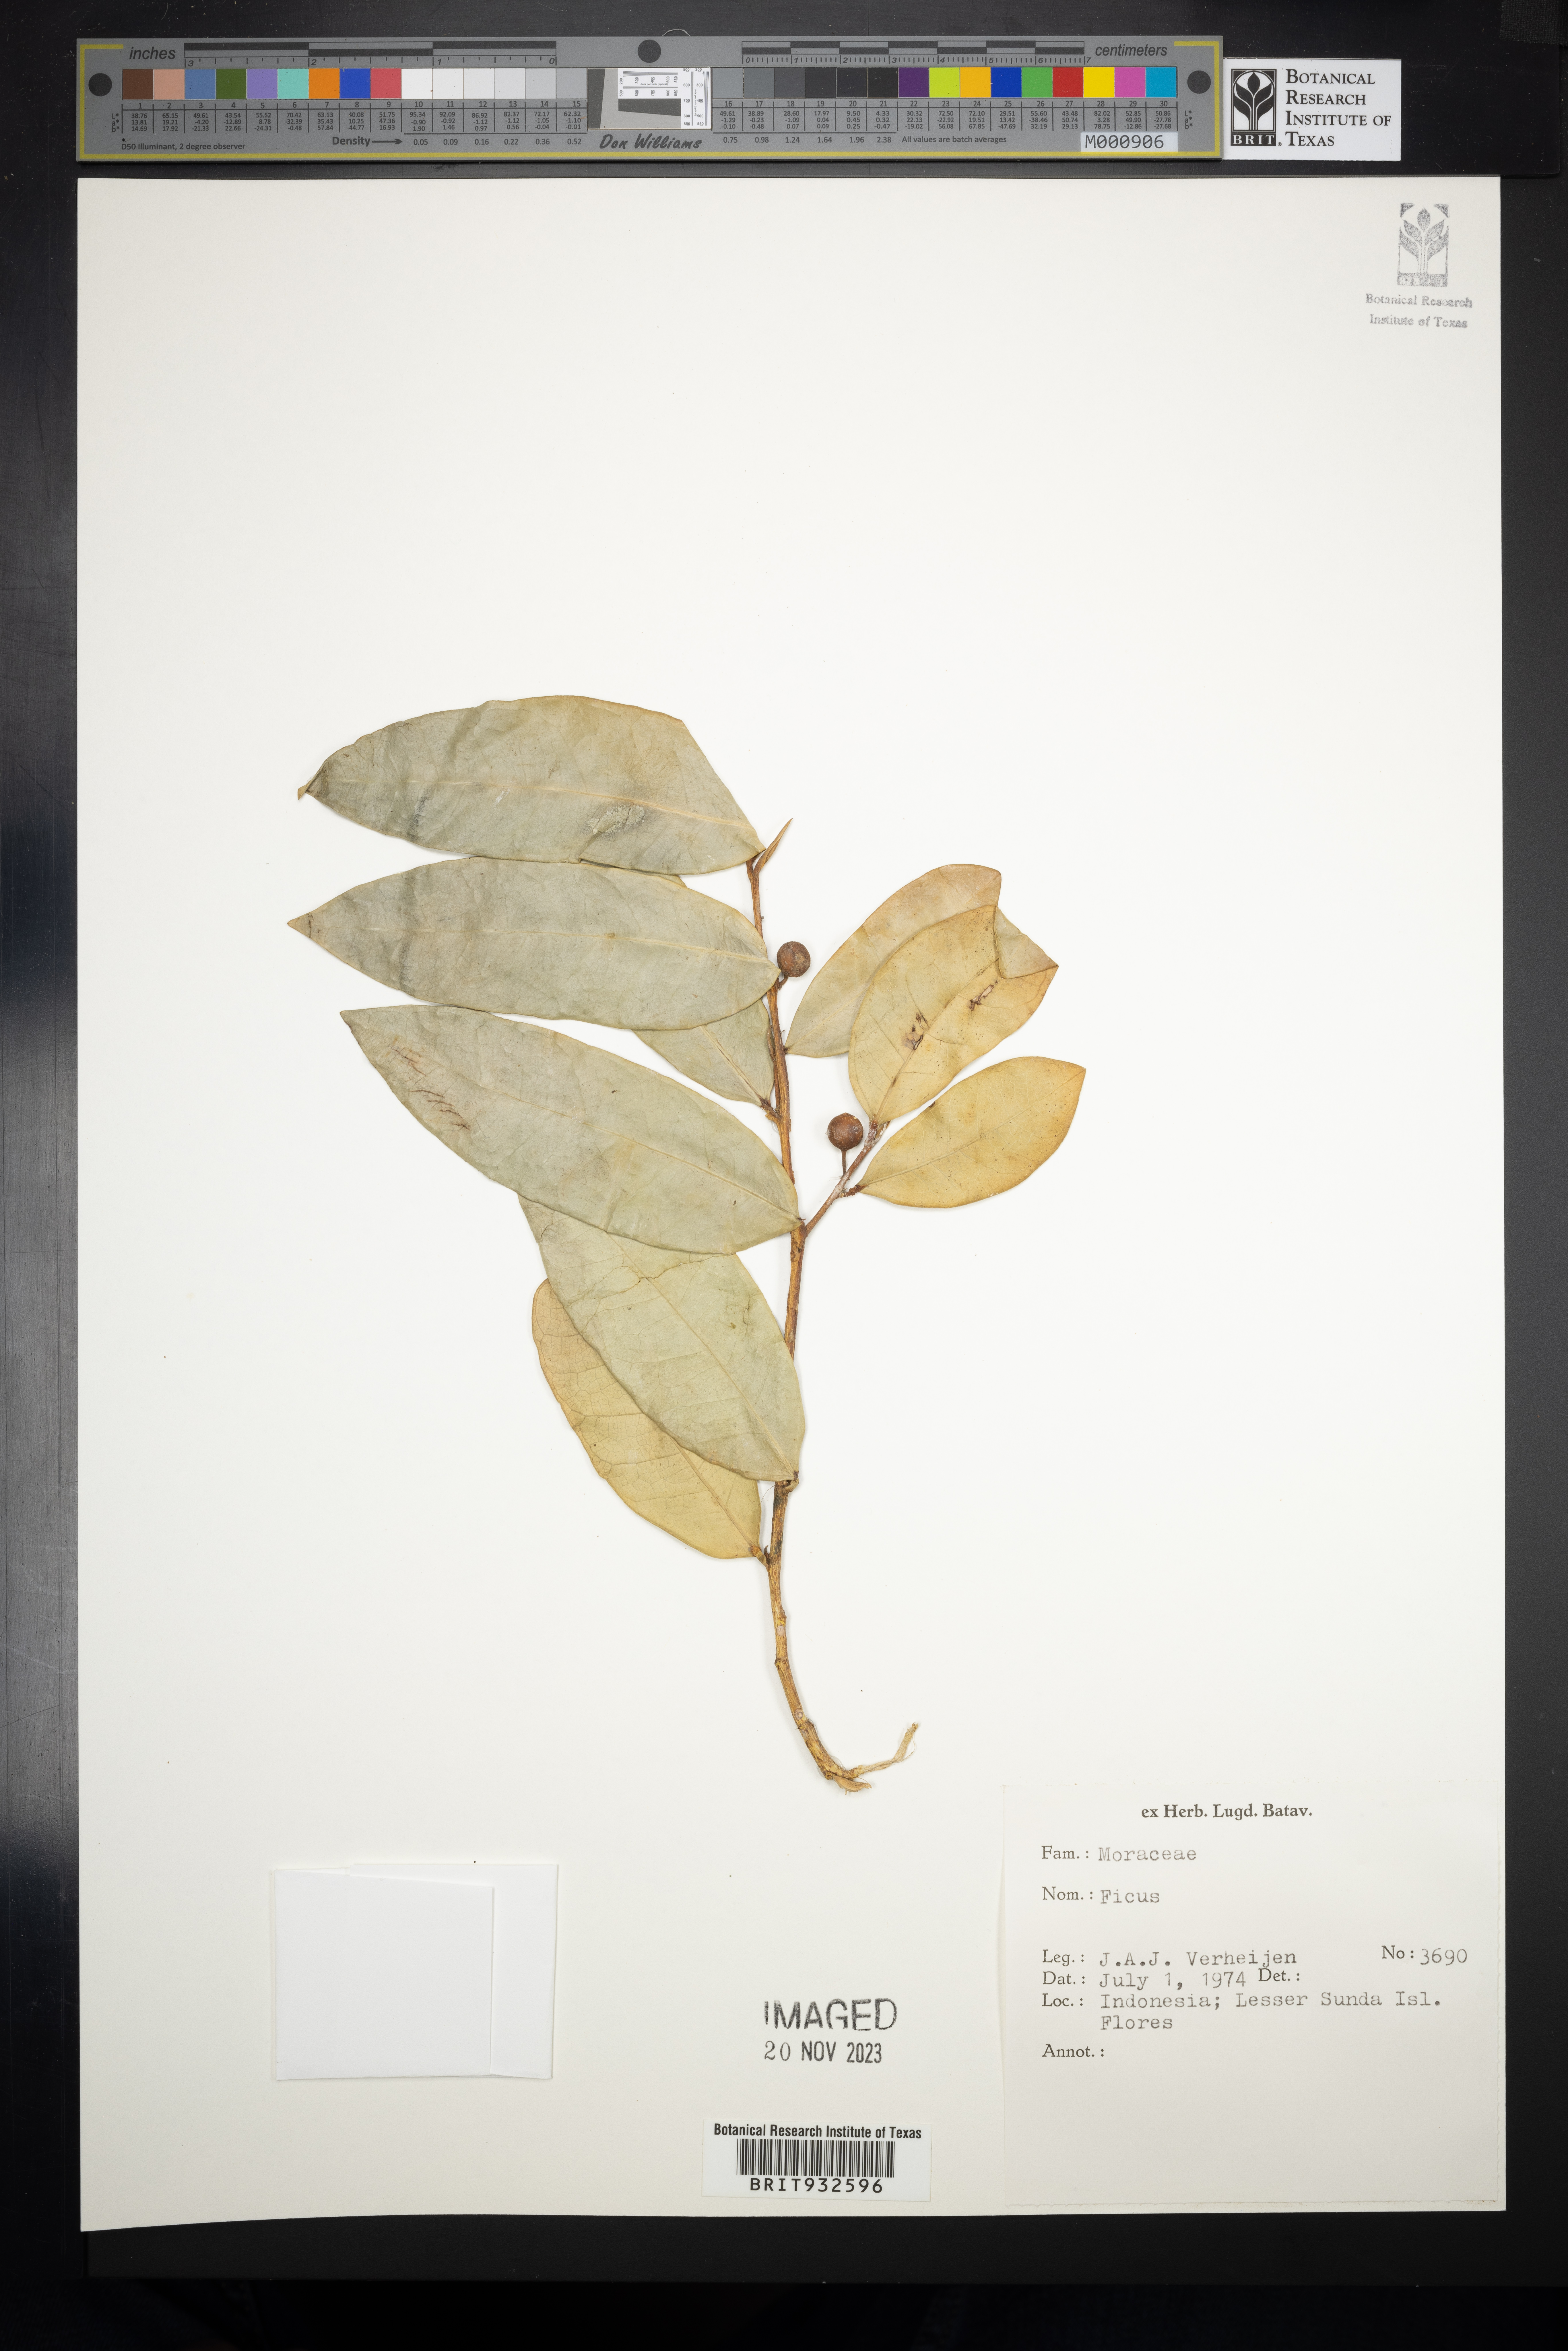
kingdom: Plantae
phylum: Tracheophyta
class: Magnoliopsida
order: Rosales
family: Moraceae
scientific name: Moraceae
